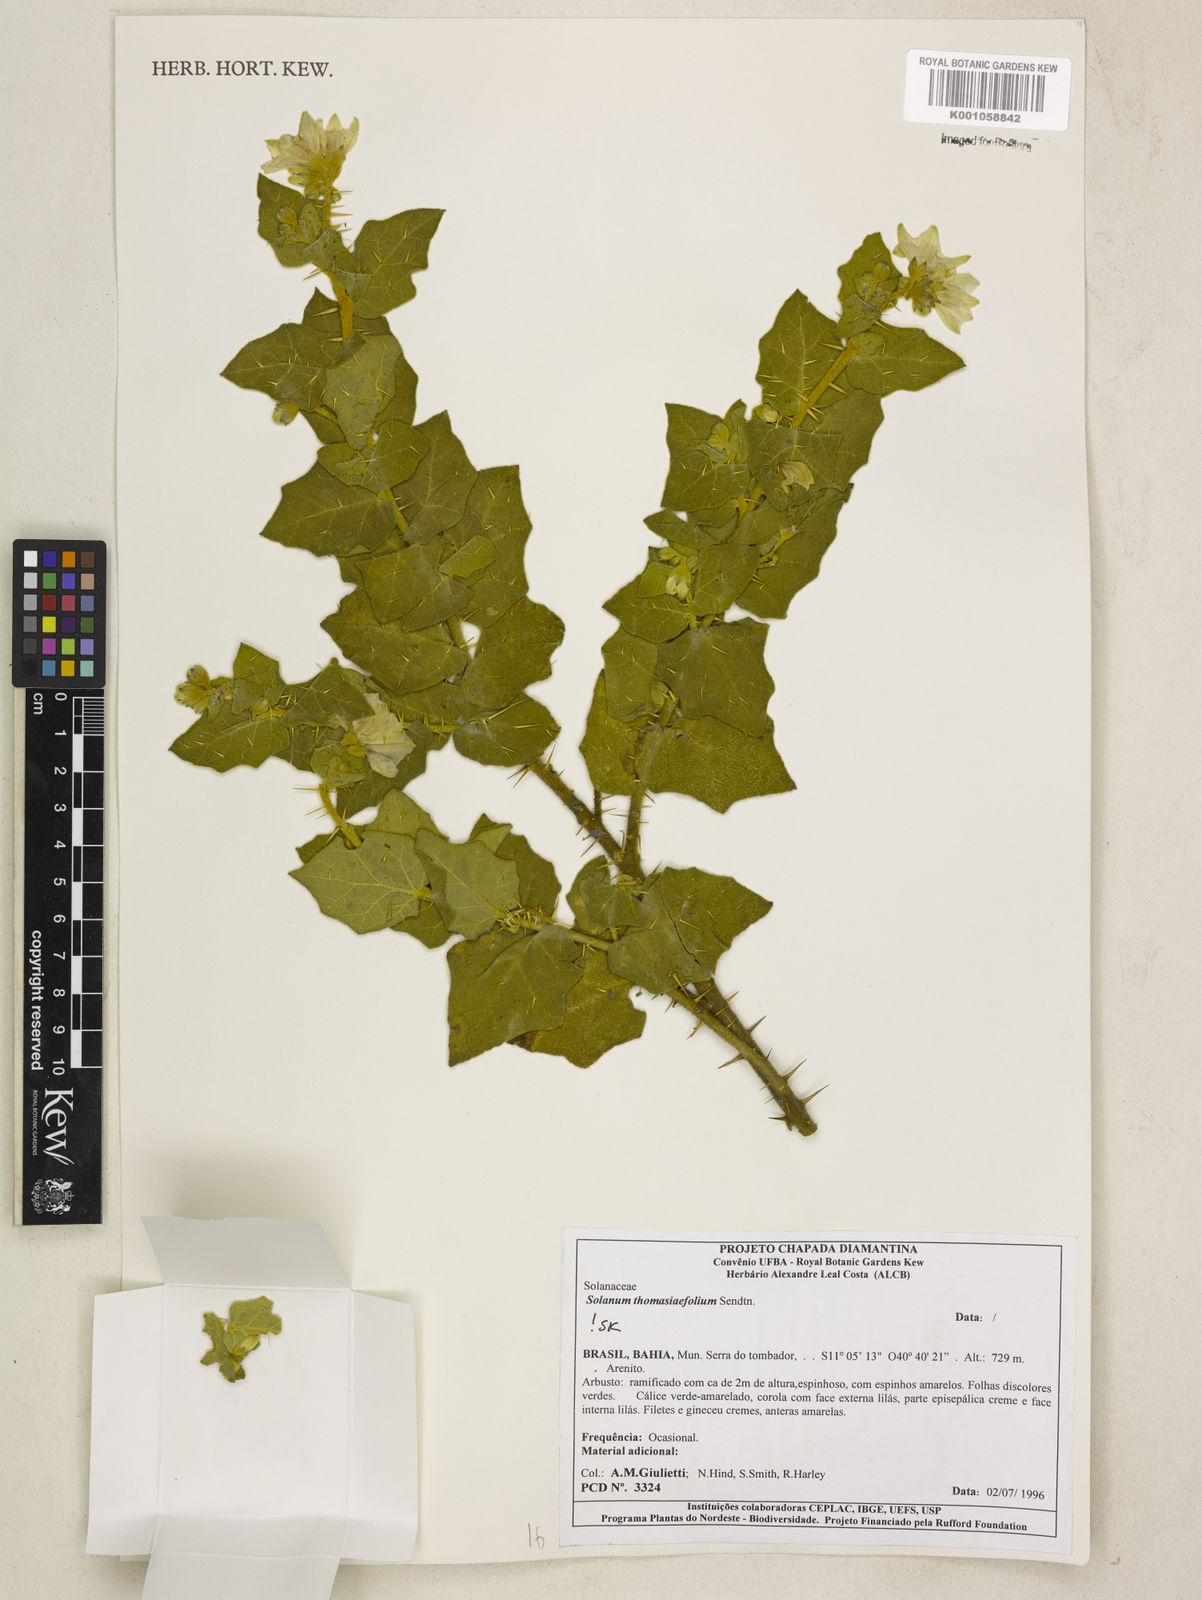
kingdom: Plantae
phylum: Tracheophyta
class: Magnoliopsida
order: Solanales
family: Solanaceae
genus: Solanum
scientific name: Solanum thomasiifolium
